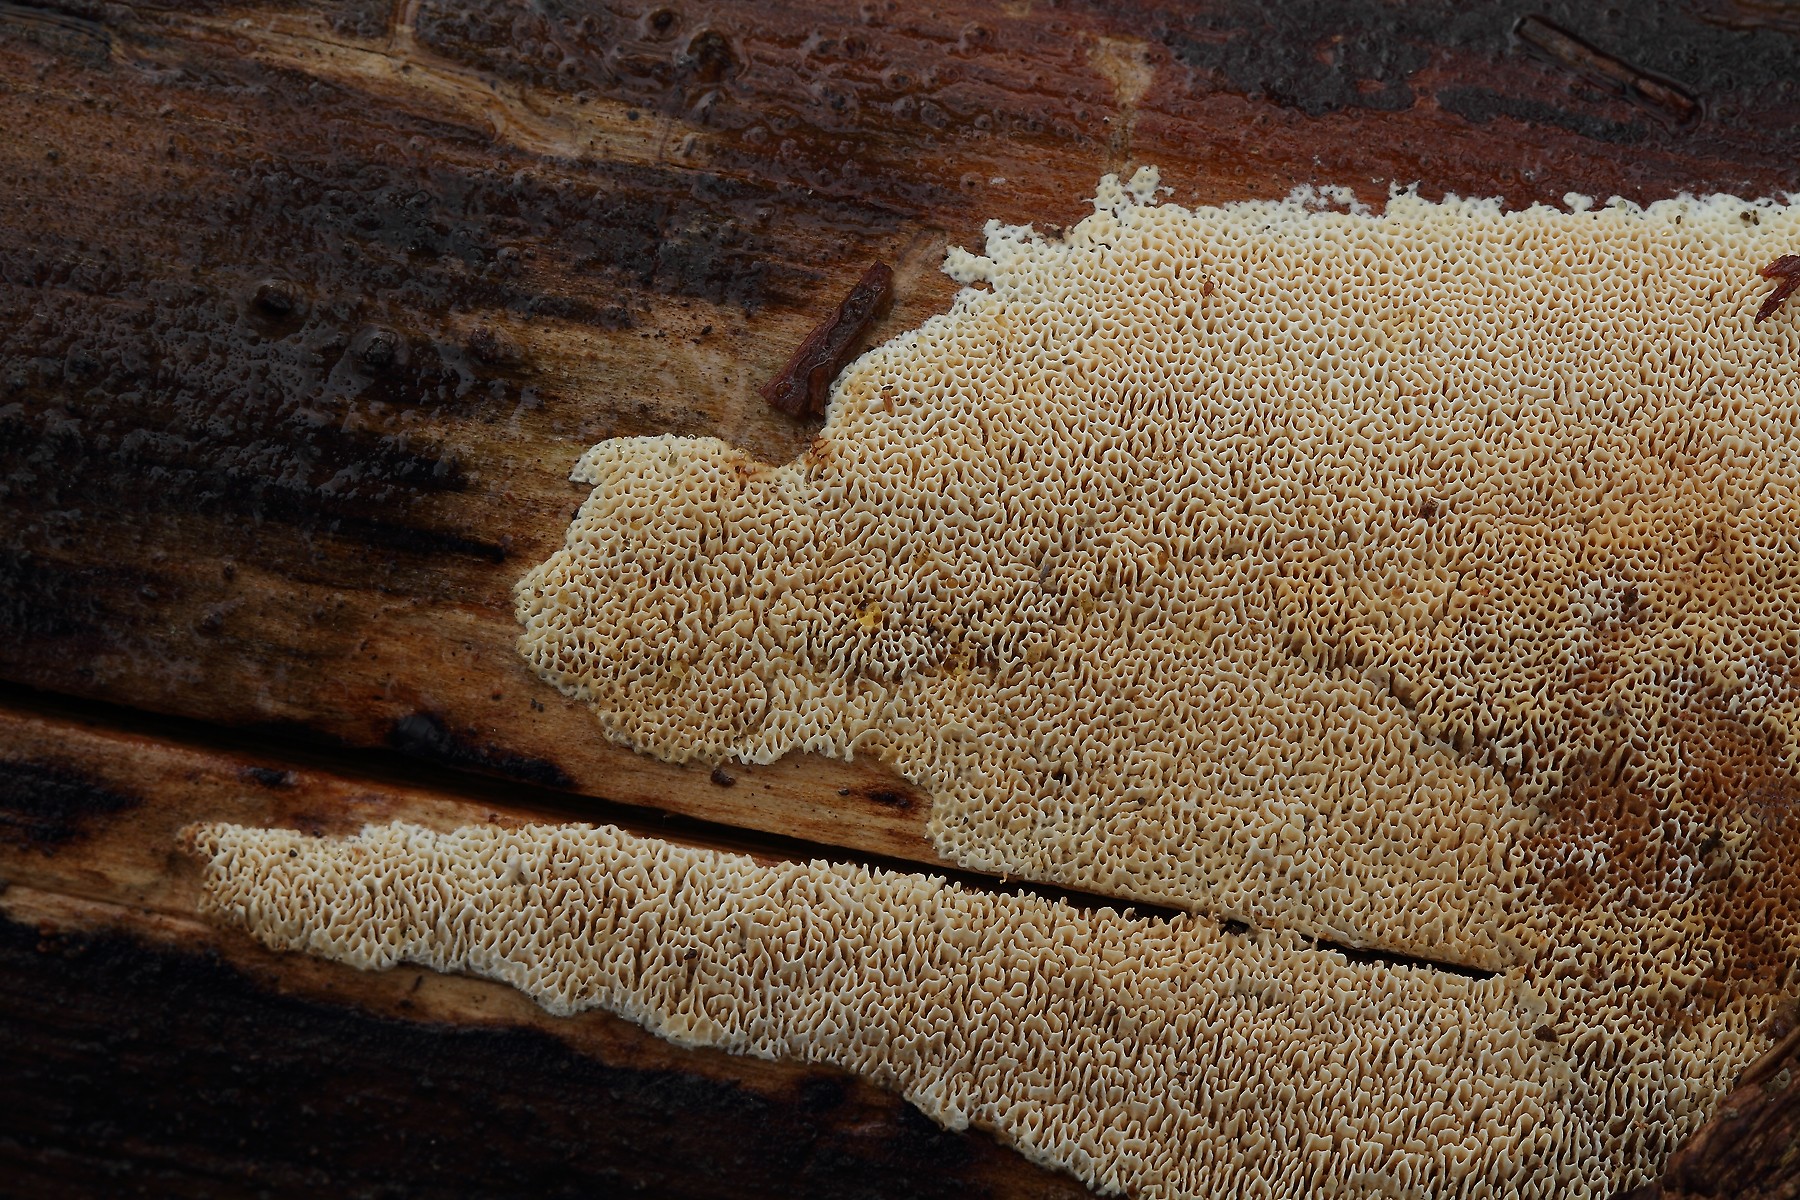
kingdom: Fungi
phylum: Basidiomycota
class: Agaricomycetes
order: Polyporales
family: Fomitopsidaceae
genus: Antrodia
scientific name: Antrodia sinuosa
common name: tømmer-sejporesvamp
